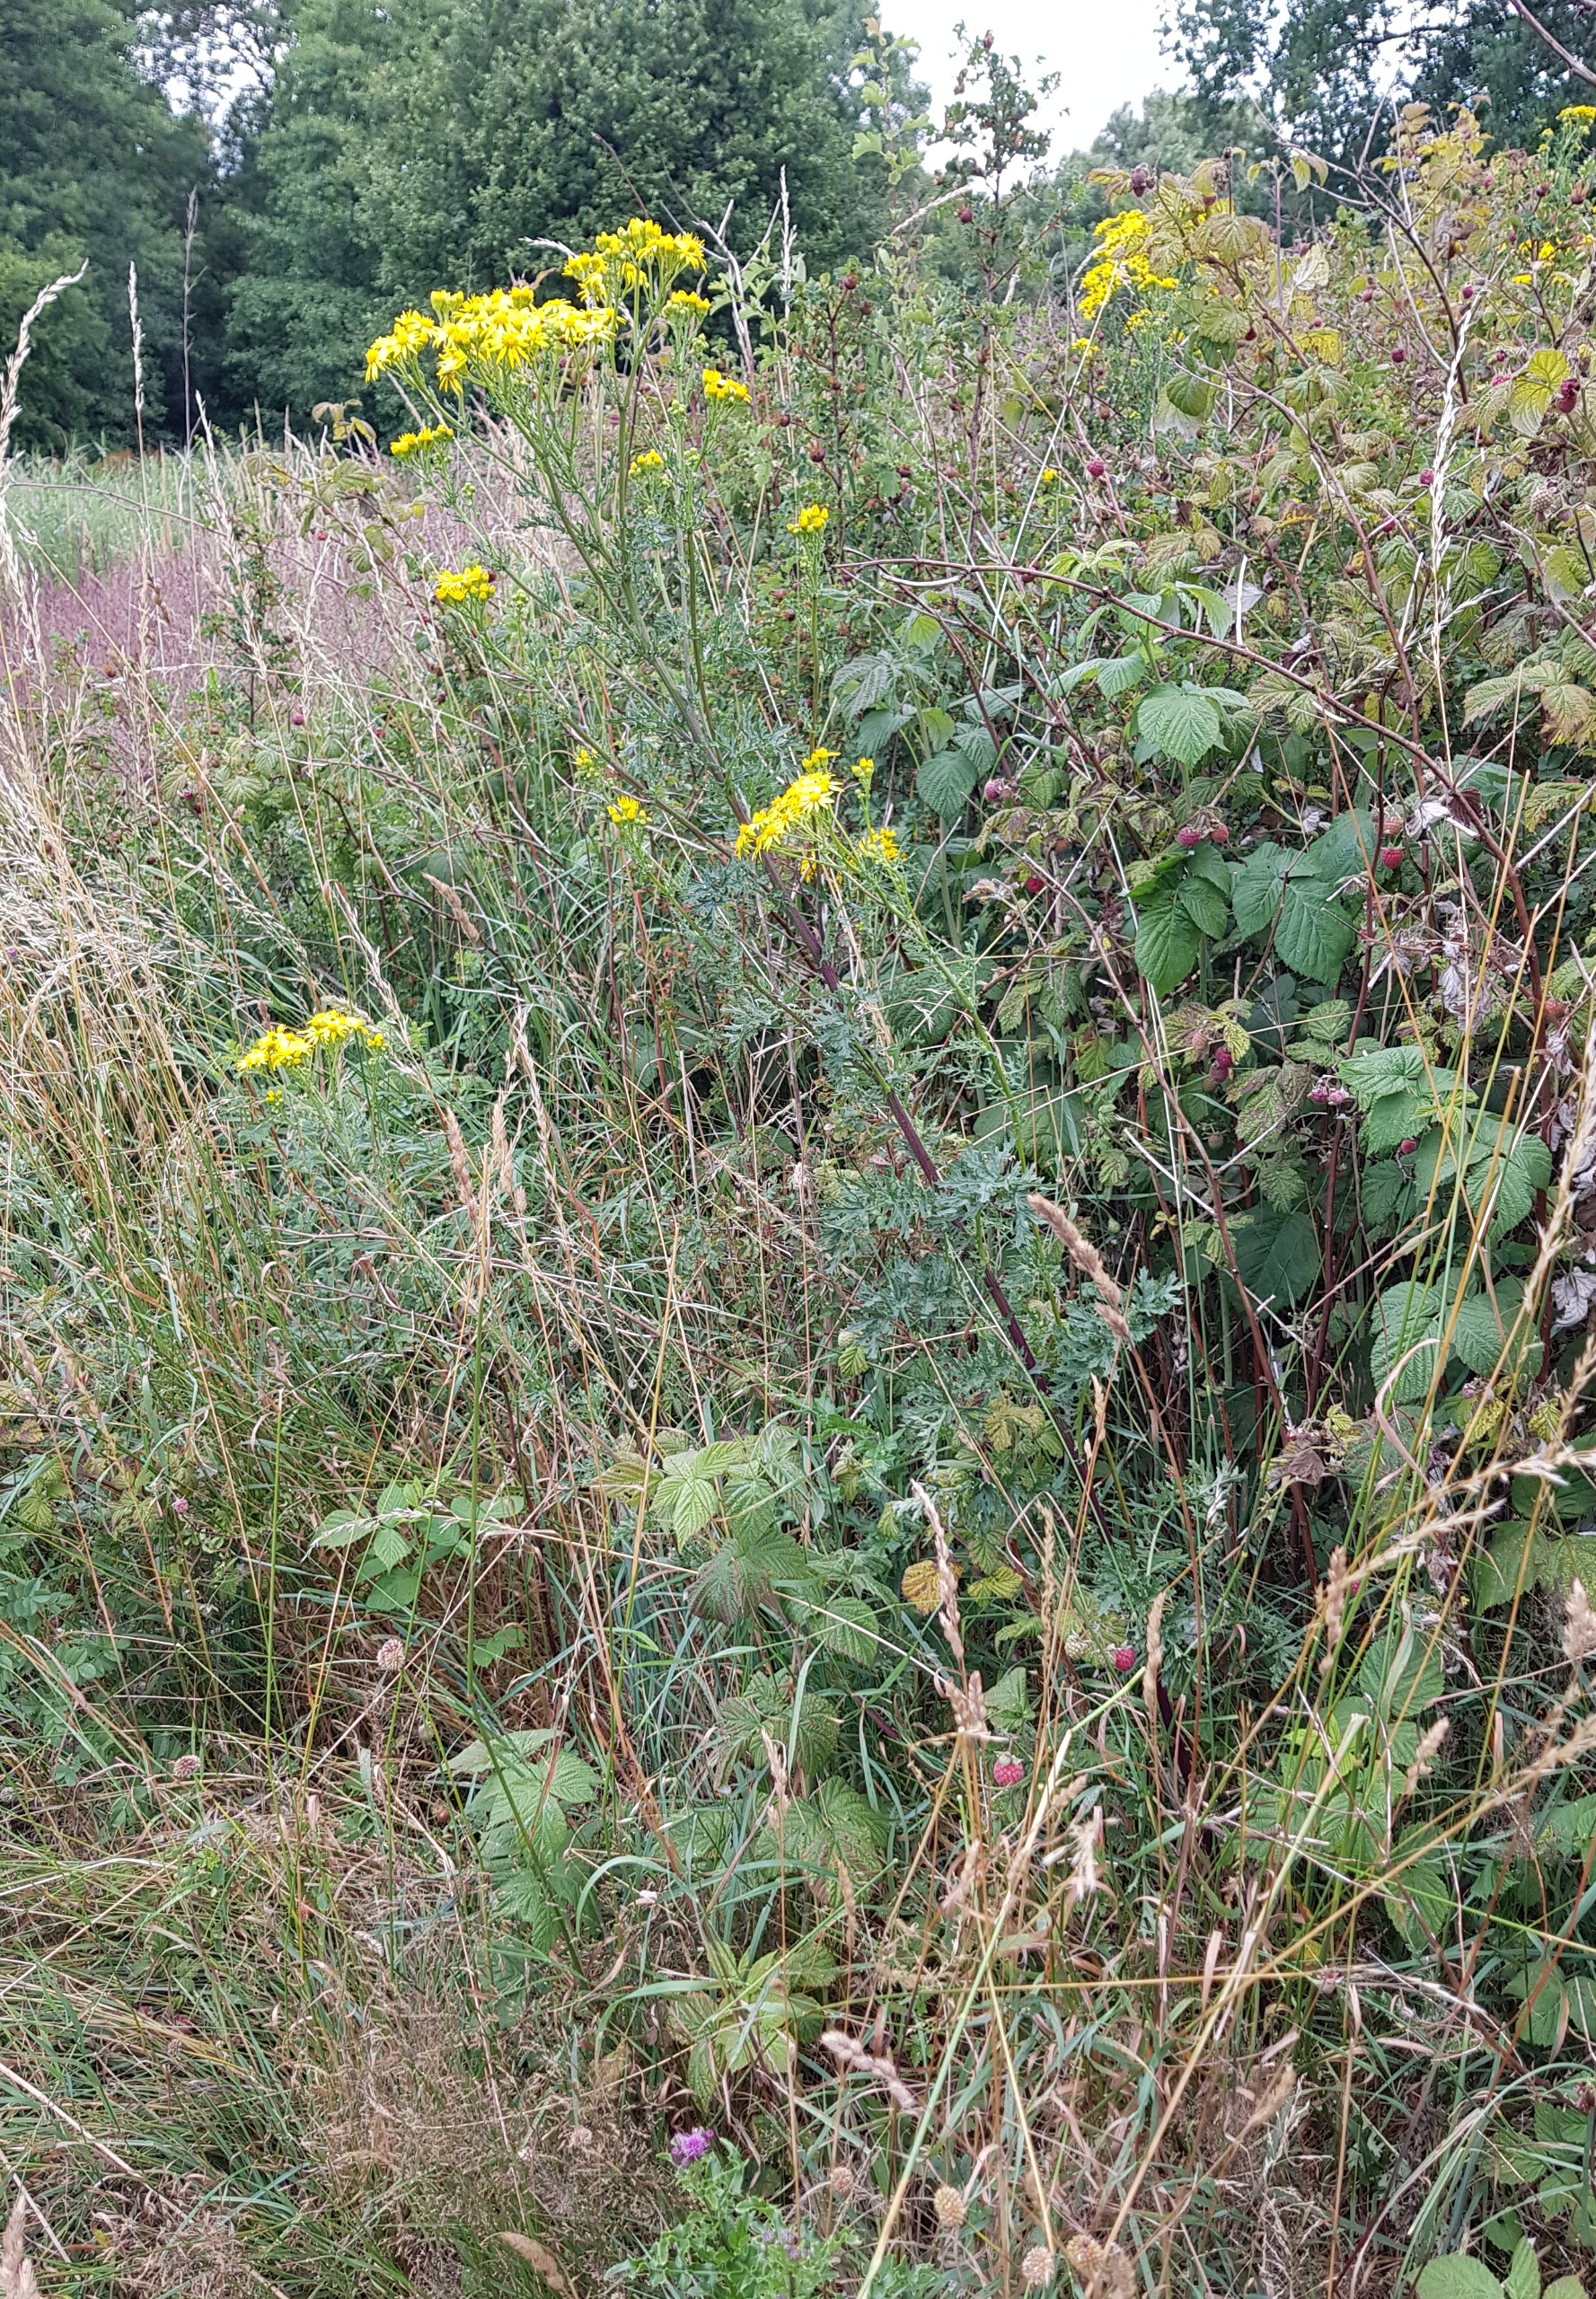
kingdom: Plantae
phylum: Tracheophyta
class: Magnoliopsida
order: Asterales
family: Asteraceae
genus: Jacobaea
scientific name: Jacobaea vulgaris
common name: Eng-brandbæger
